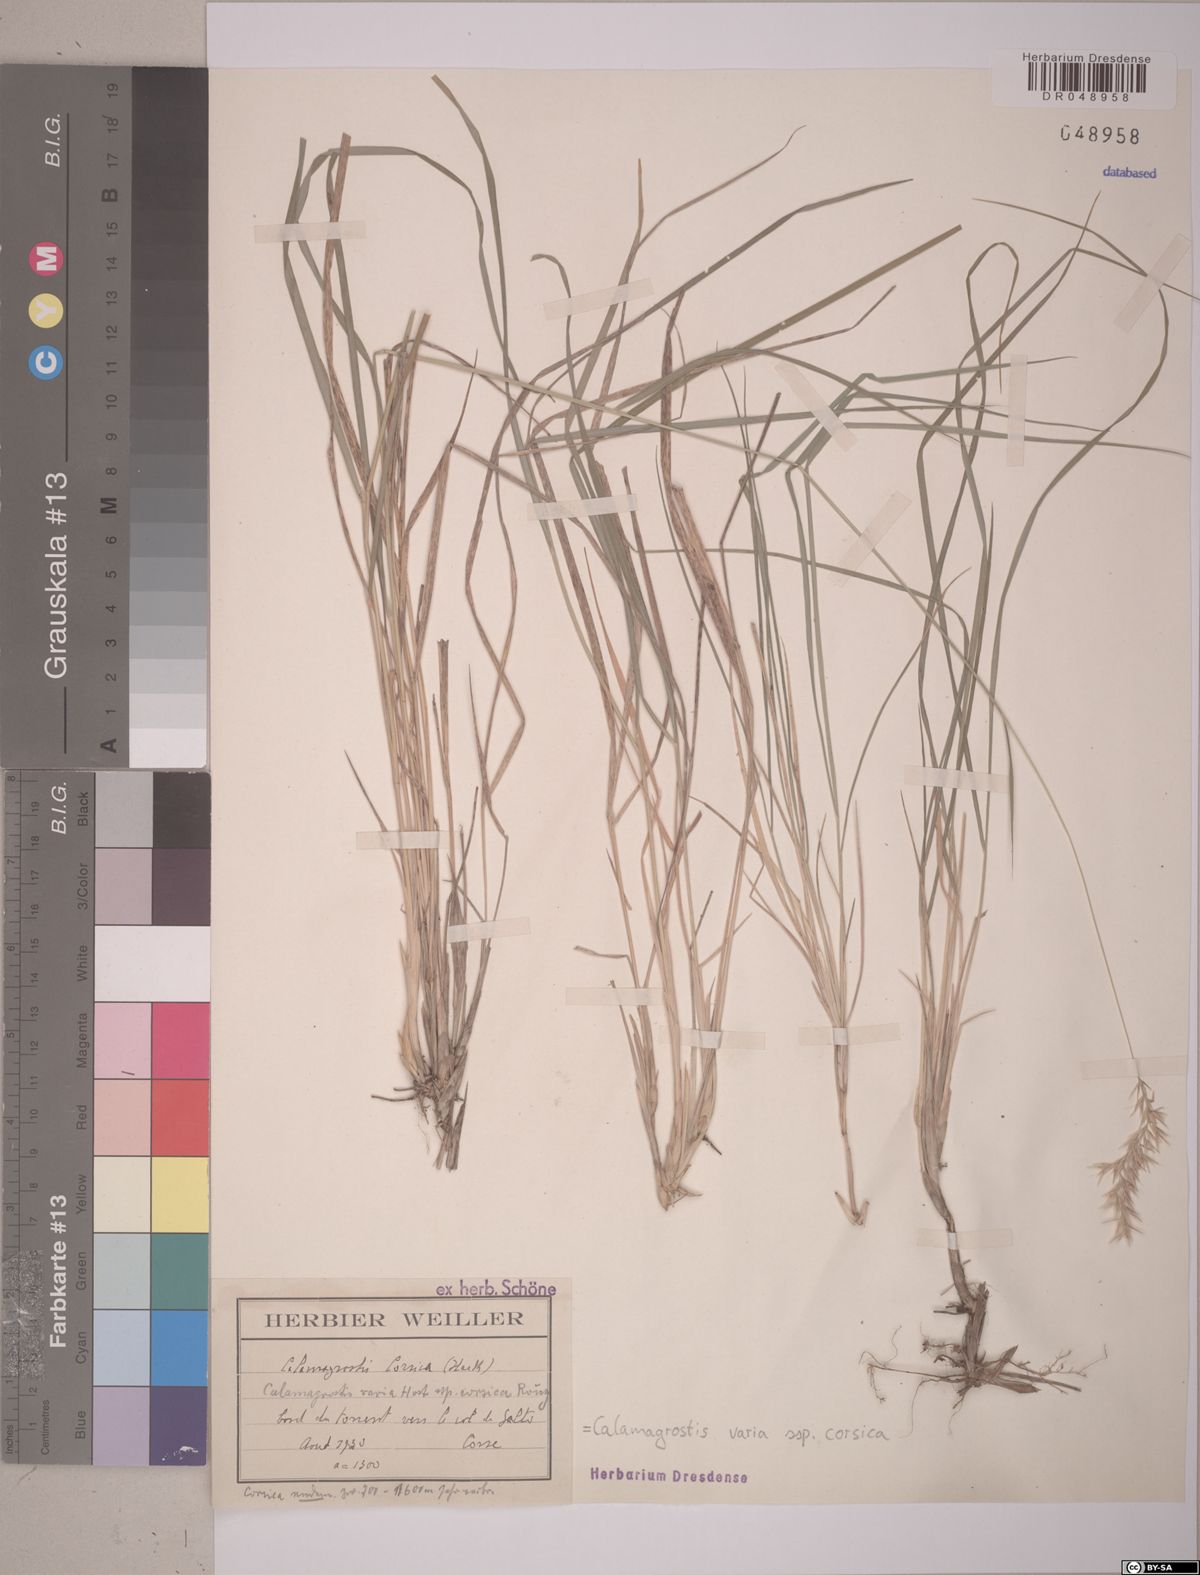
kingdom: Plantae
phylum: Tracheophyta
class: Liliopsida
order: Poales
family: Poaceae
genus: Calamagrostis
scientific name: Calamagrostis varia
